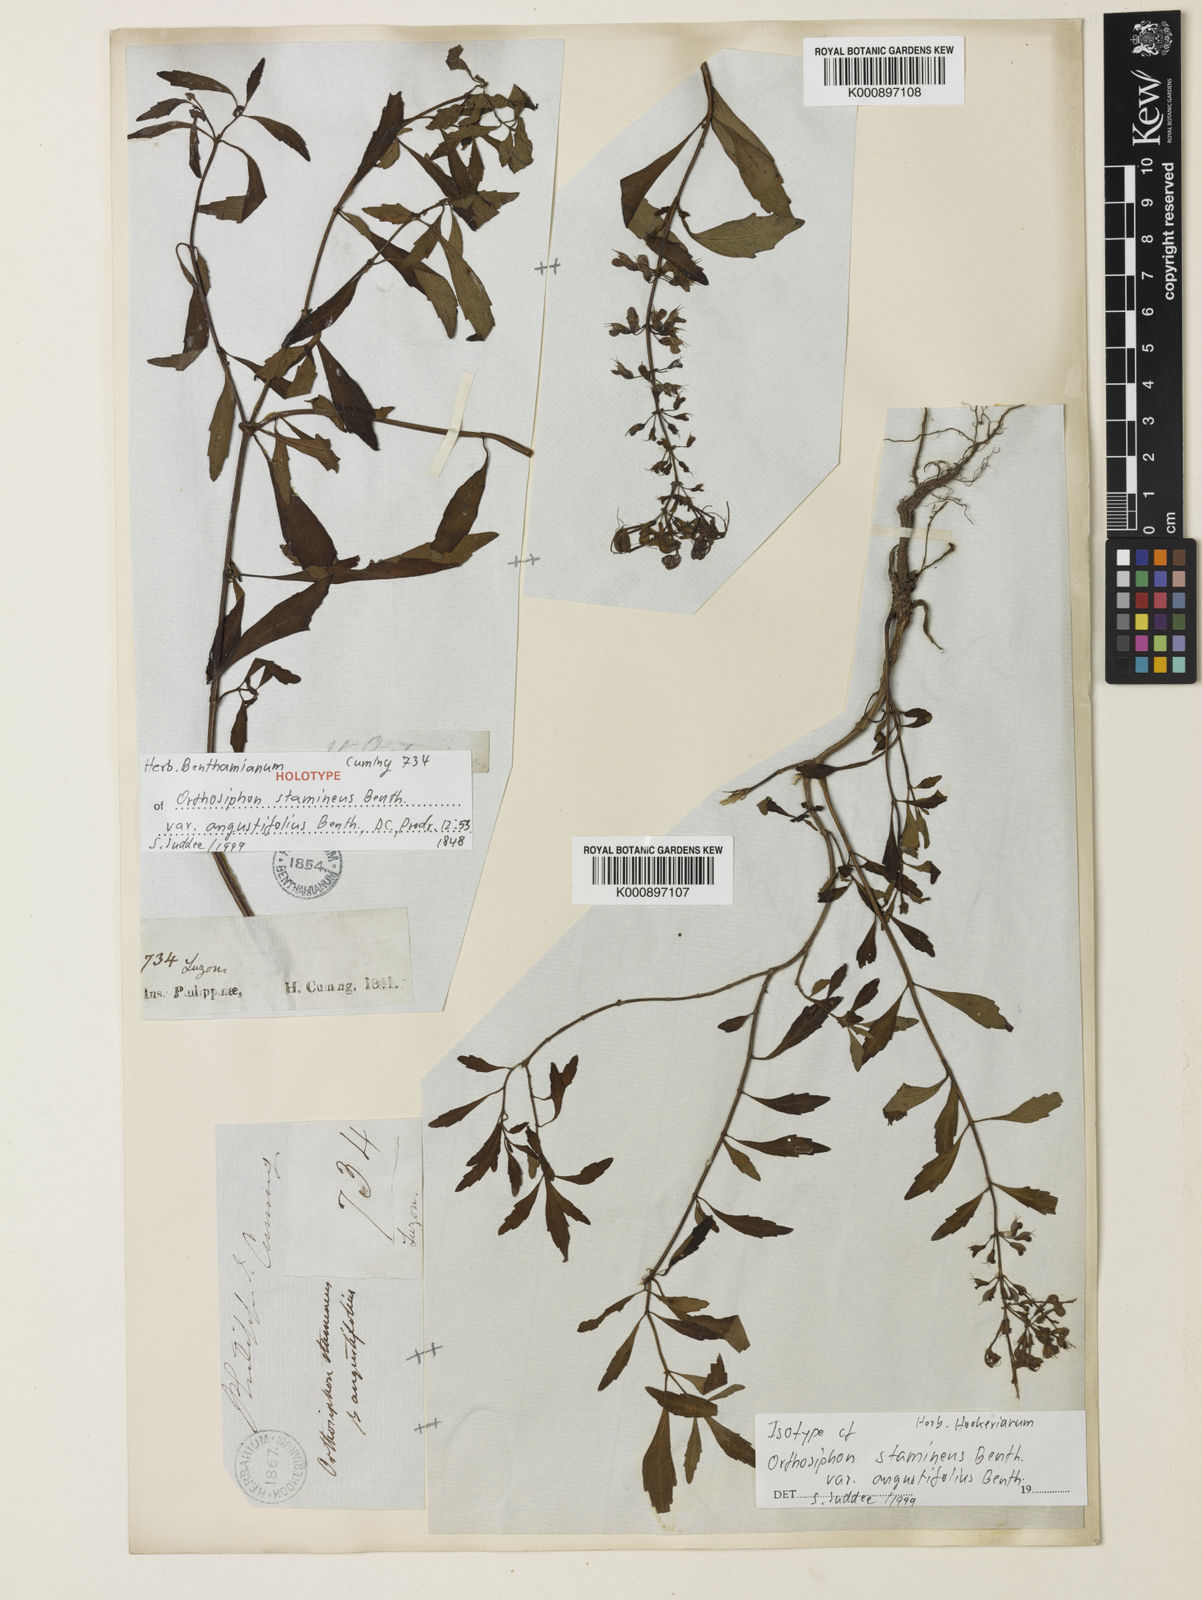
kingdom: Plantae
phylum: Tracheophyta
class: Magnoliopsida
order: Lamiales
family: Lamiaceae
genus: Orthosiphon
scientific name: Orthosiphon aristatus
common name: Whiskerplant
